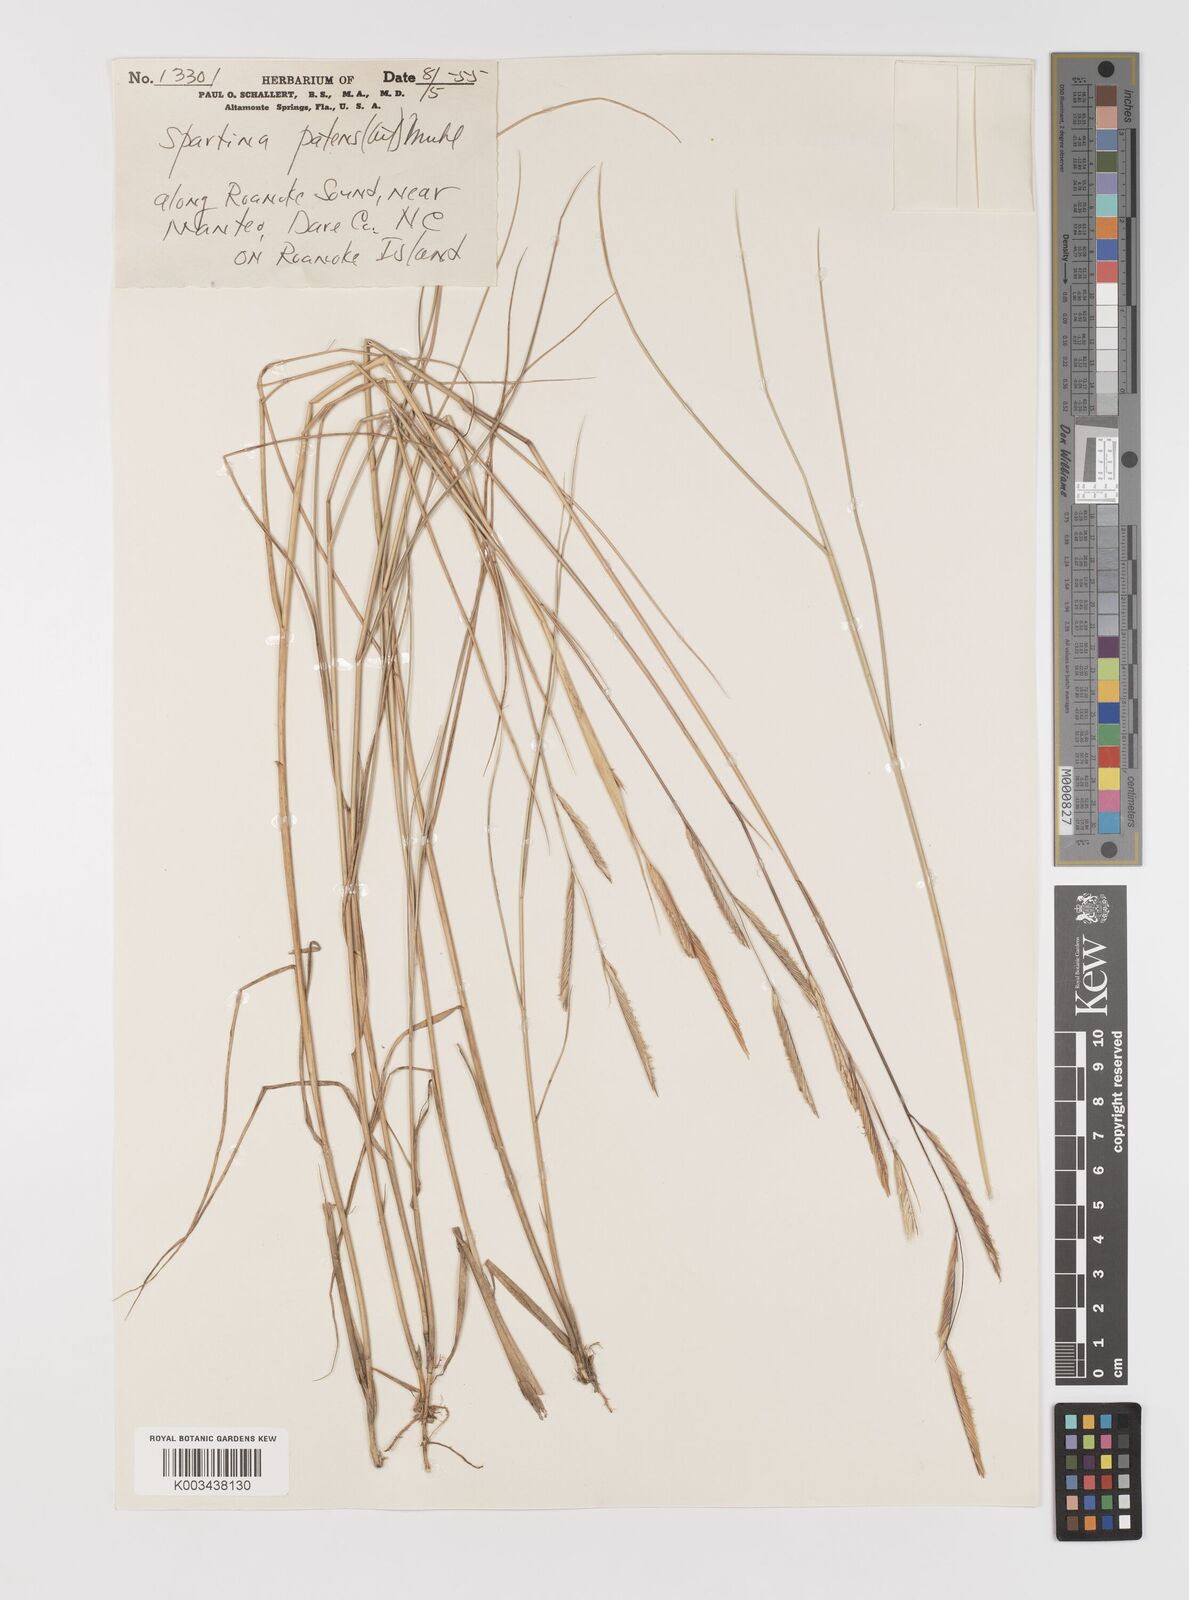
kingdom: Plantae
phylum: Tracheophyta
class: Liliopsida
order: Poales
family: Poaceae
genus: Sporobolus
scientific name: Sporobolus pumilus
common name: Highwater grass
